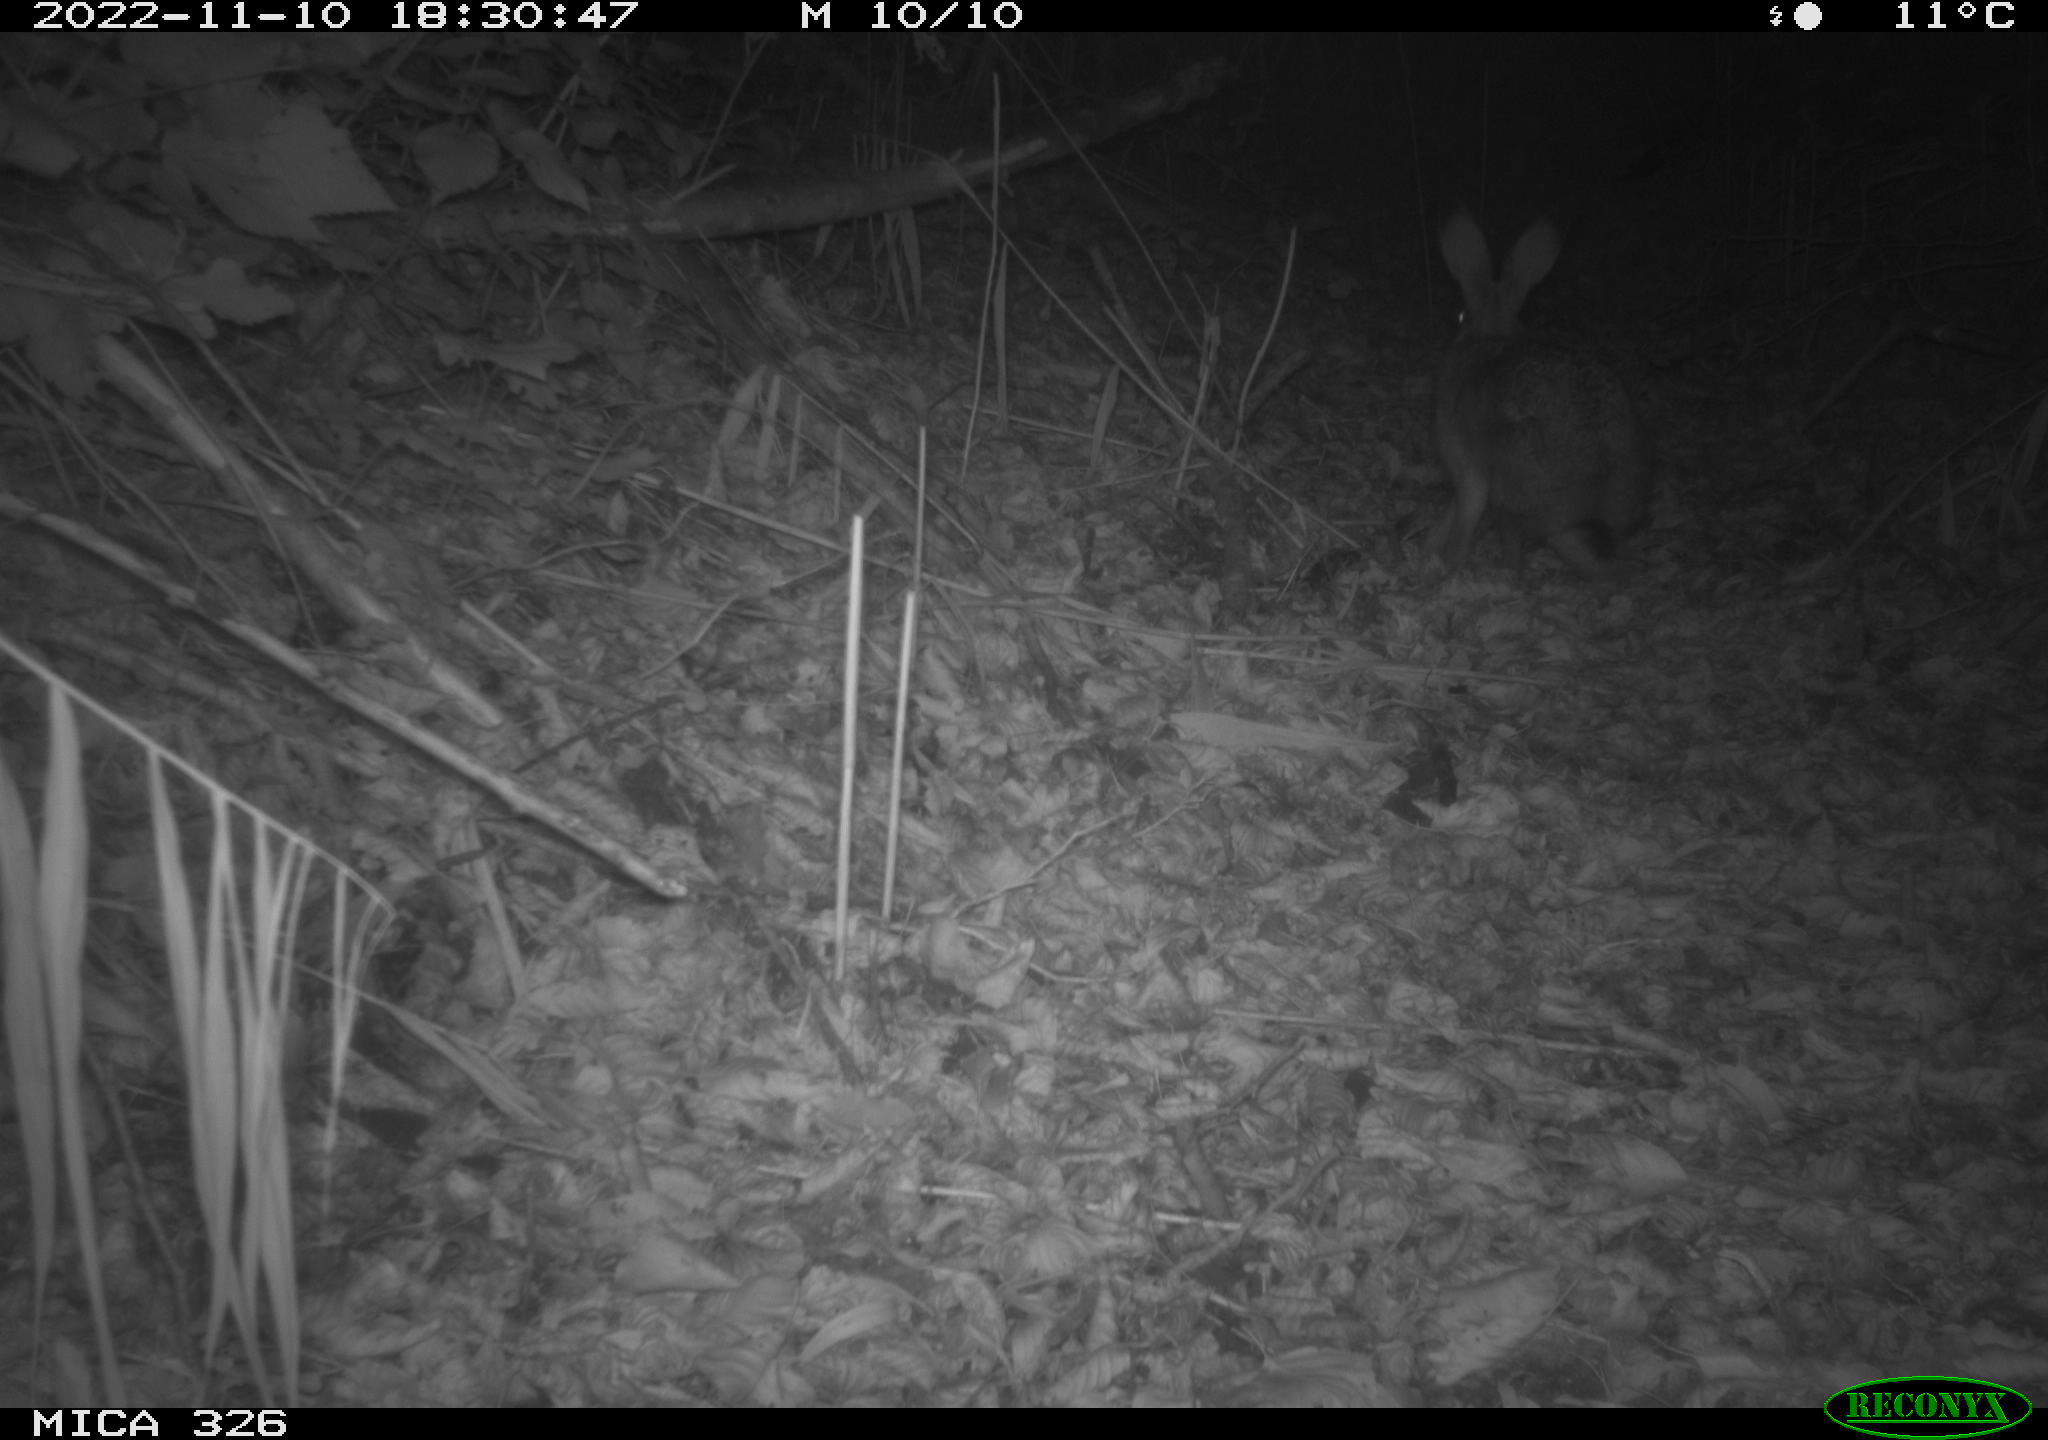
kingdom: Animalia
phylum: Chordata
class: Mammalia
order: Lagomorpha
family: Leporidae
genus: Lepus
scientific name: Lepus europaeus
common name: European hare
